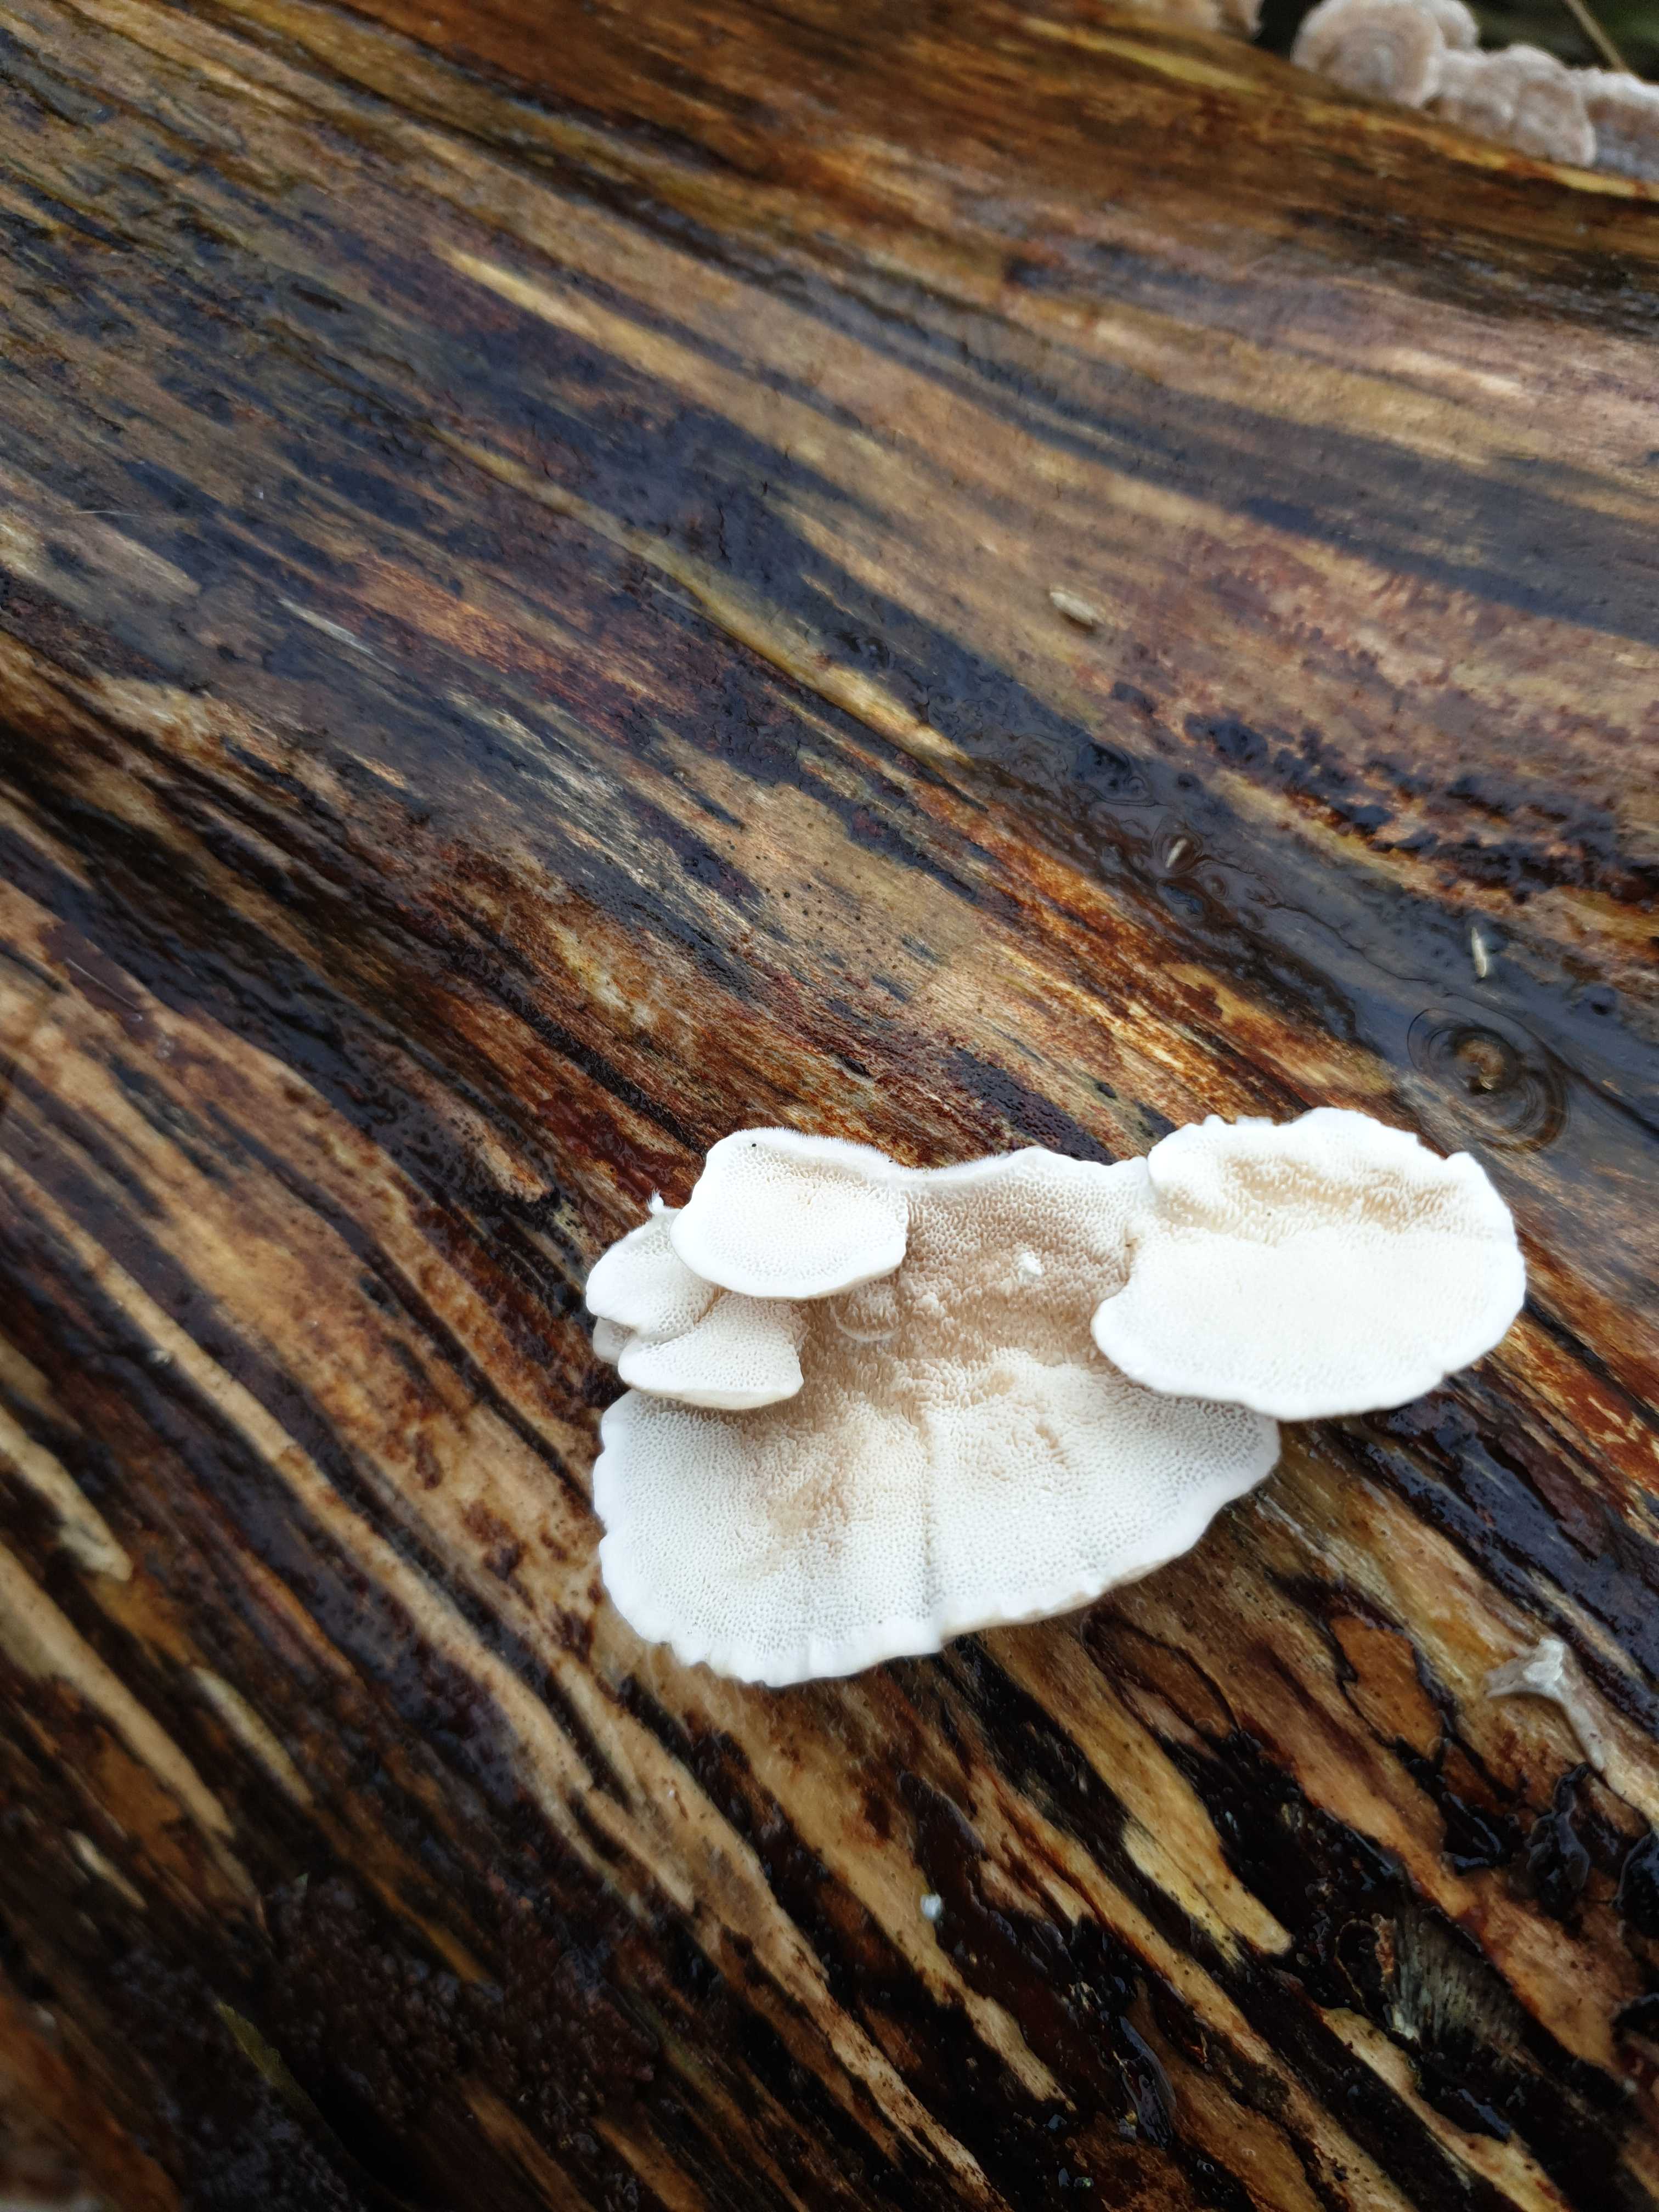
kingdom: Fungi
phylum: Basidiomycota
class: Agaricomycetes
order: Polyporales
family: Polyporaceae
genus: Trametes
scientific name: Trametes versicolor
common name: broget læderporesvamp
